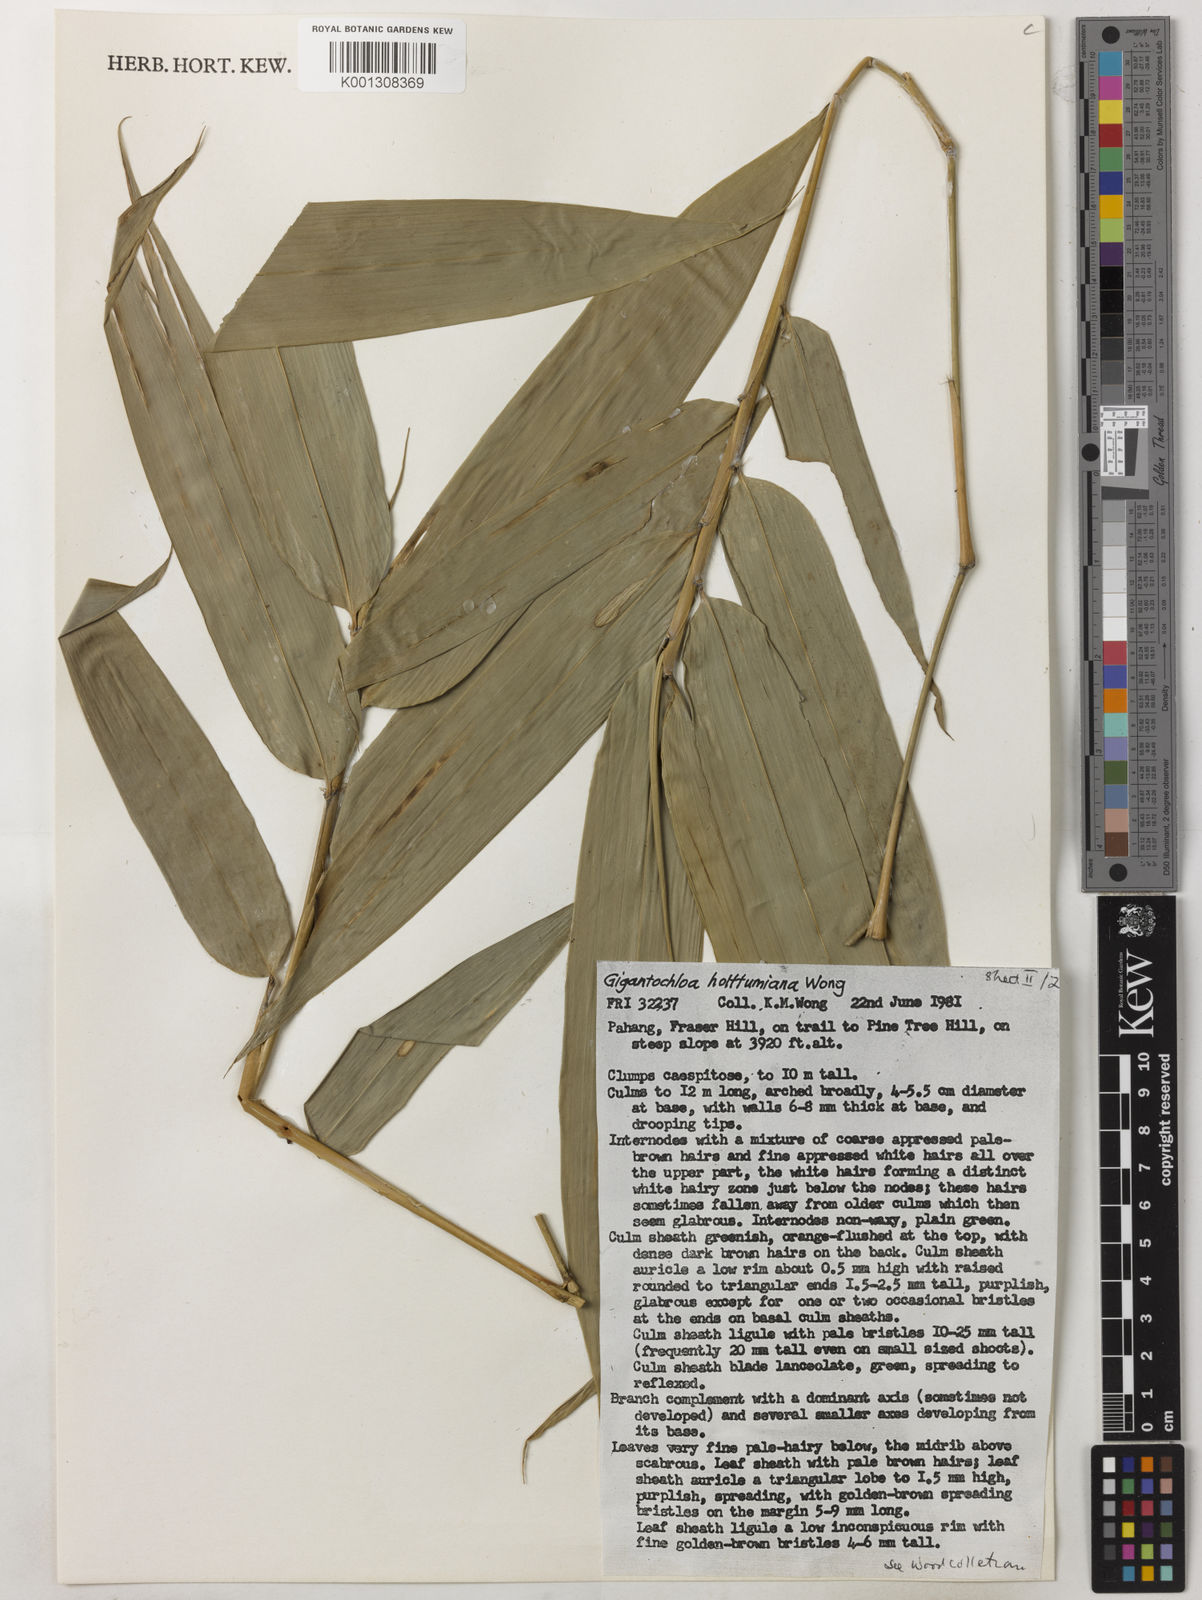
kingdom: Plantae
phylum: Tracheophyta
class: Liliopsida
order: Poales
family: Poaceae
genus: Gigantochloa
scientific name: Gigantochloa holttumiana
